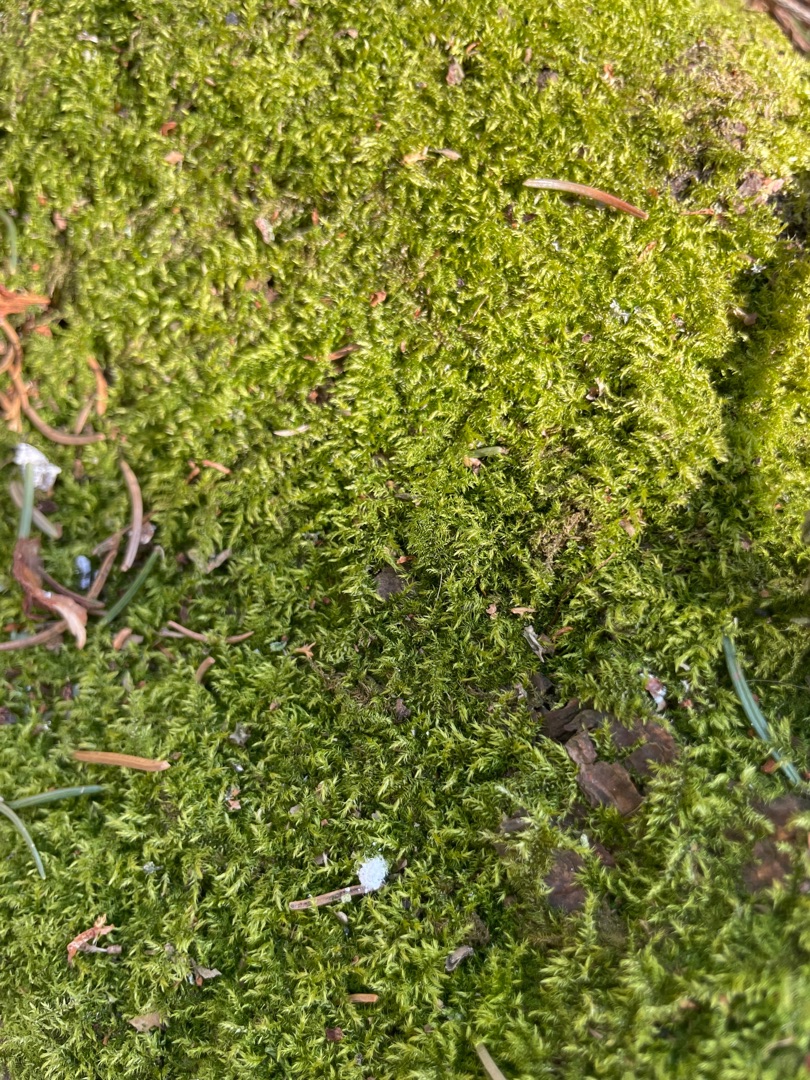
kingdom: Plantae
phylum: Bryophyta
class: Bryopsida
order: Hypnales
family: Brachytheciaceae
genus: Kindbergia
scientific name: Kindbergia praelonga
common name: Forskelligbladet vortetand
